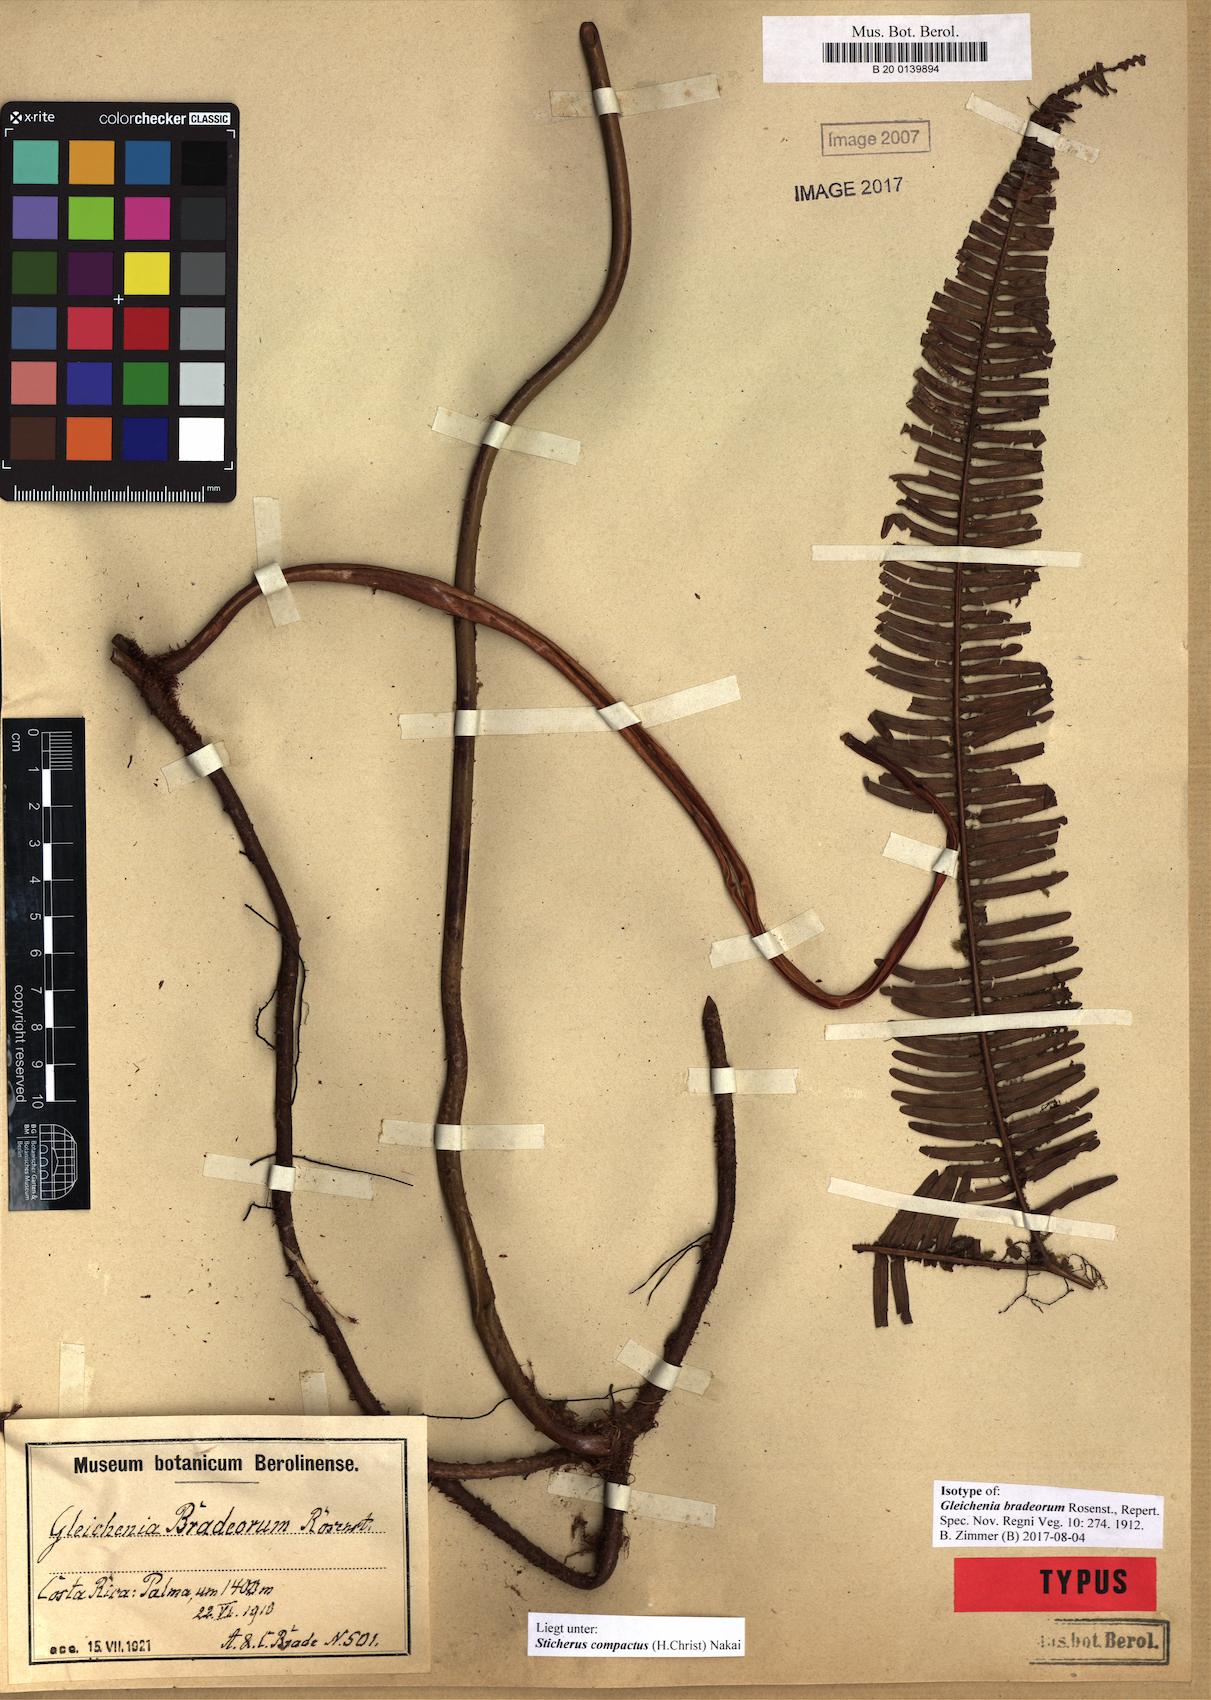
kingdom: Plantae
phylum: Tracheophyta
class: Polypodiopsida
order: Gleicheniales
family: Gleicheniaceae
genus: Sticherus
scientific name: Sticherus compactus
